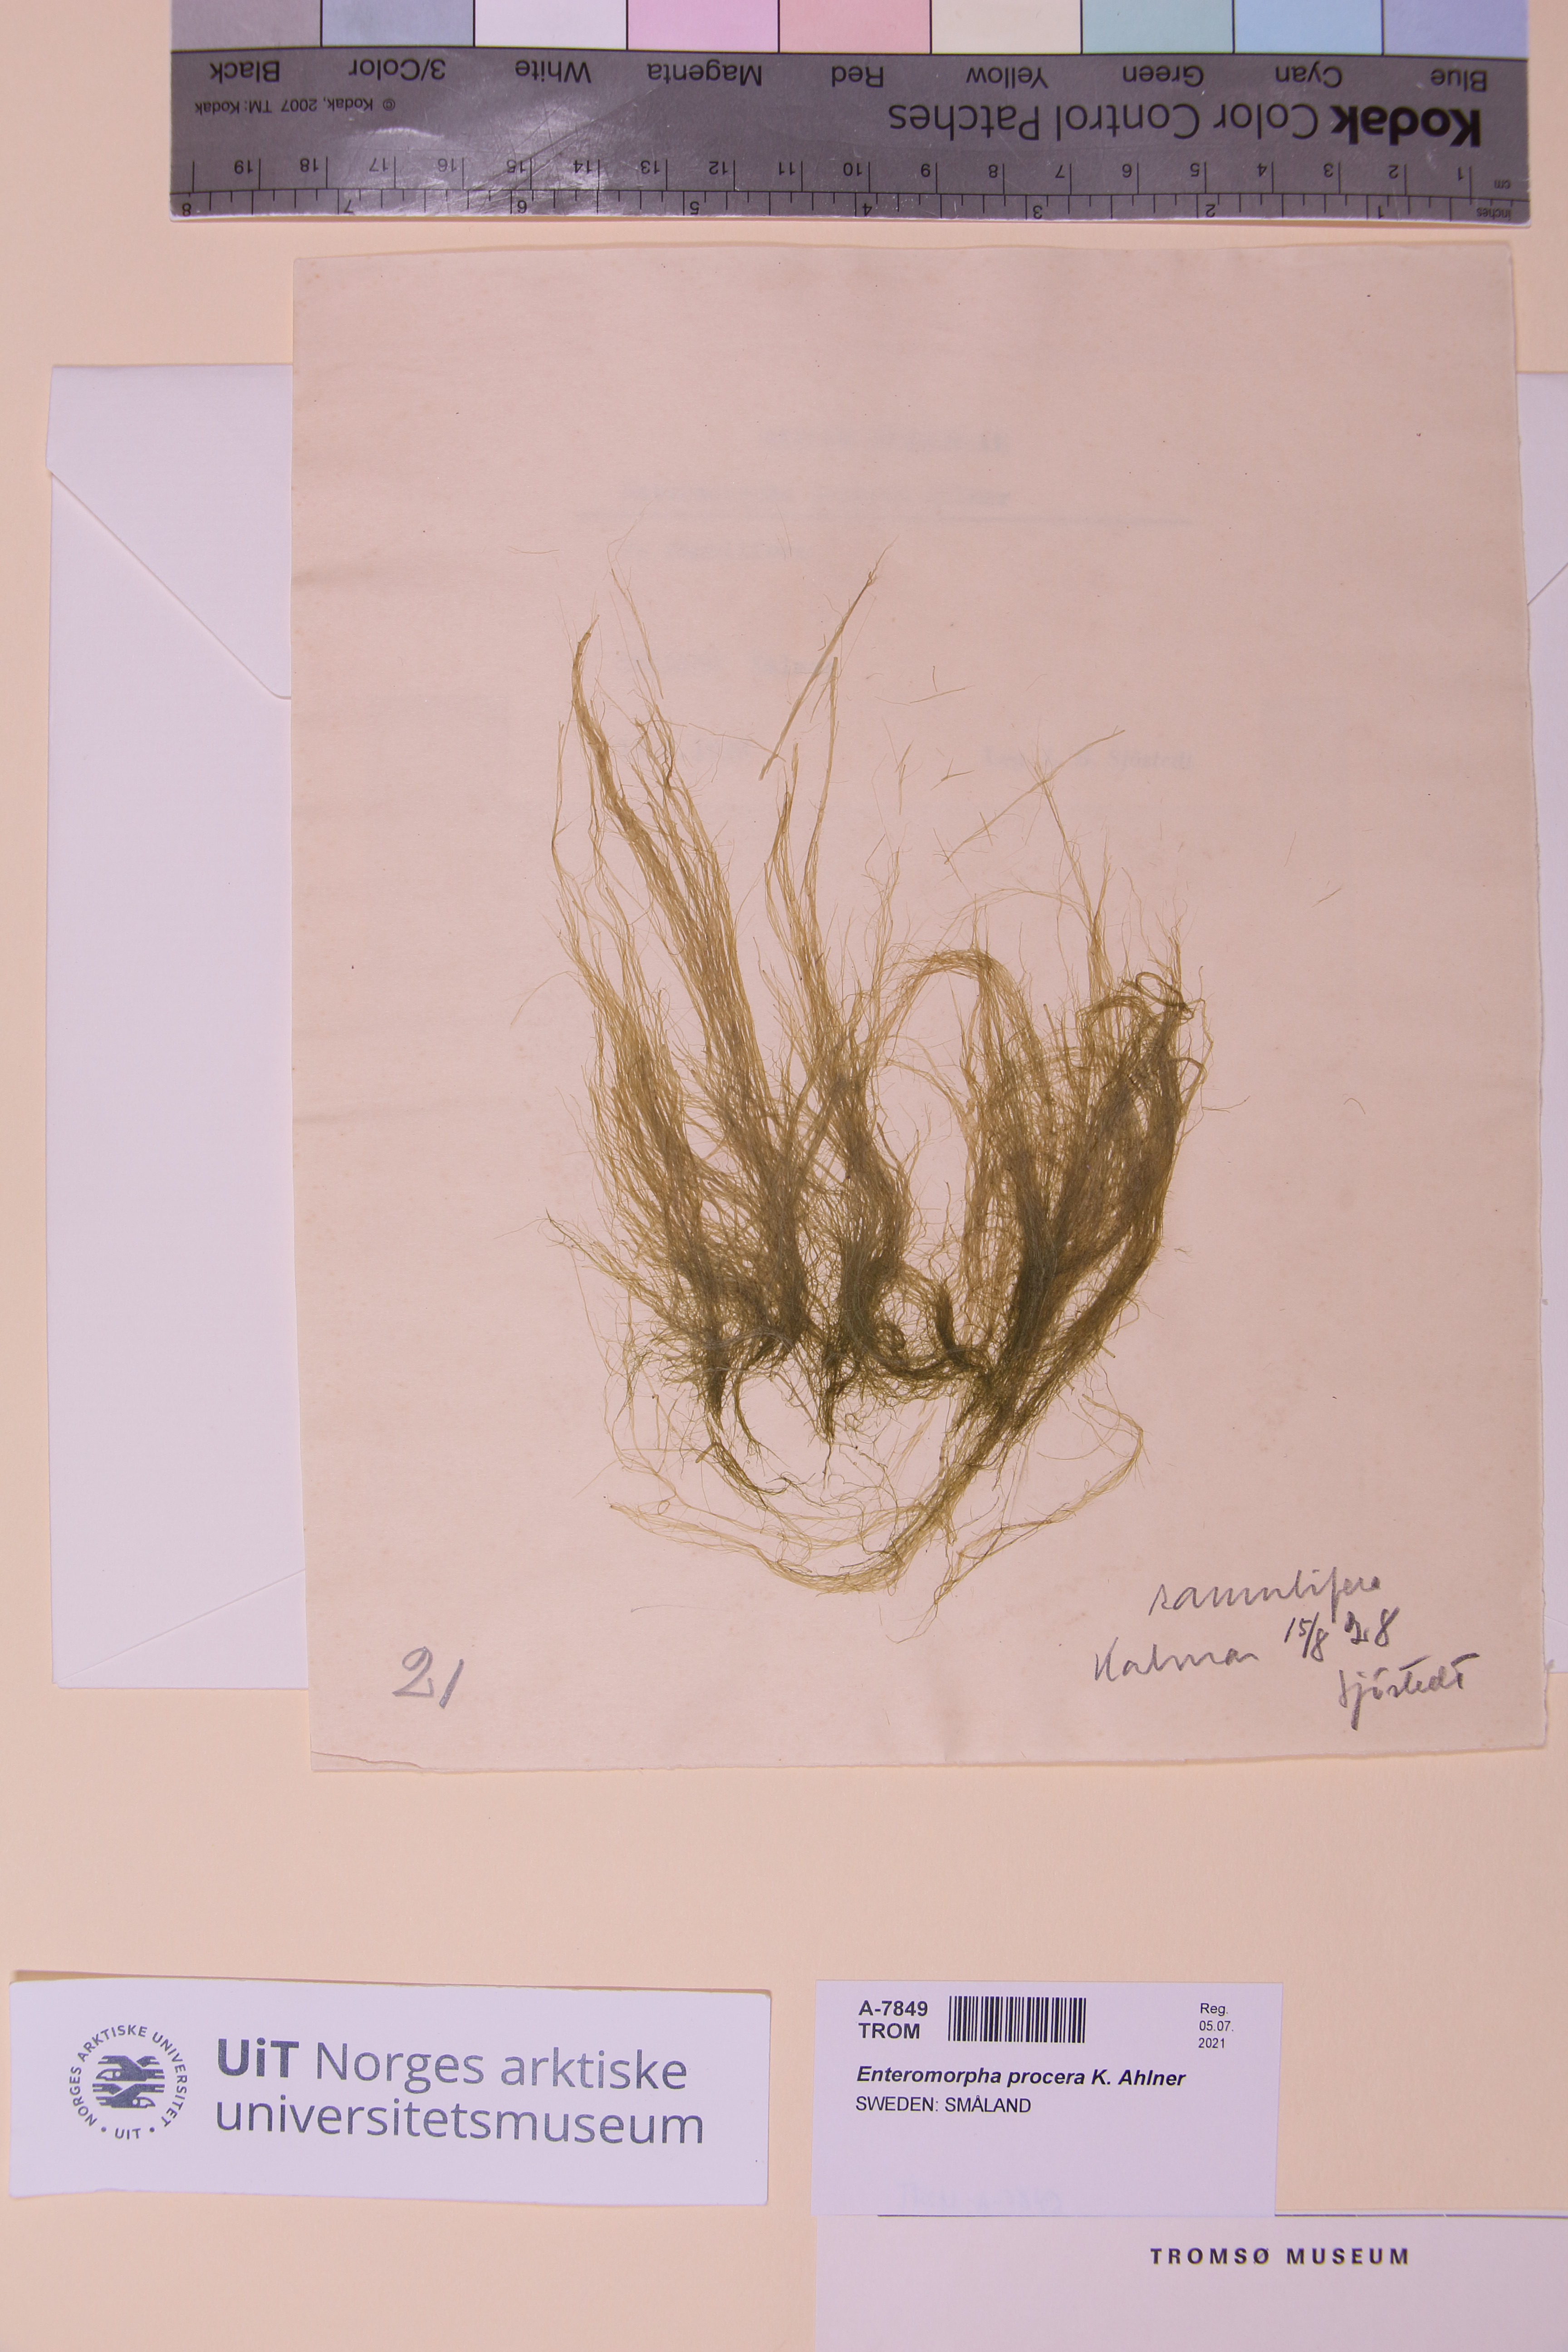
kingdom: Plantae
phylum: Chlorophyta
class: Ulvophyceae
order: Ulvales
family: Ulvaceae
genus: Ulva
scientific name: Ulva prolifera
